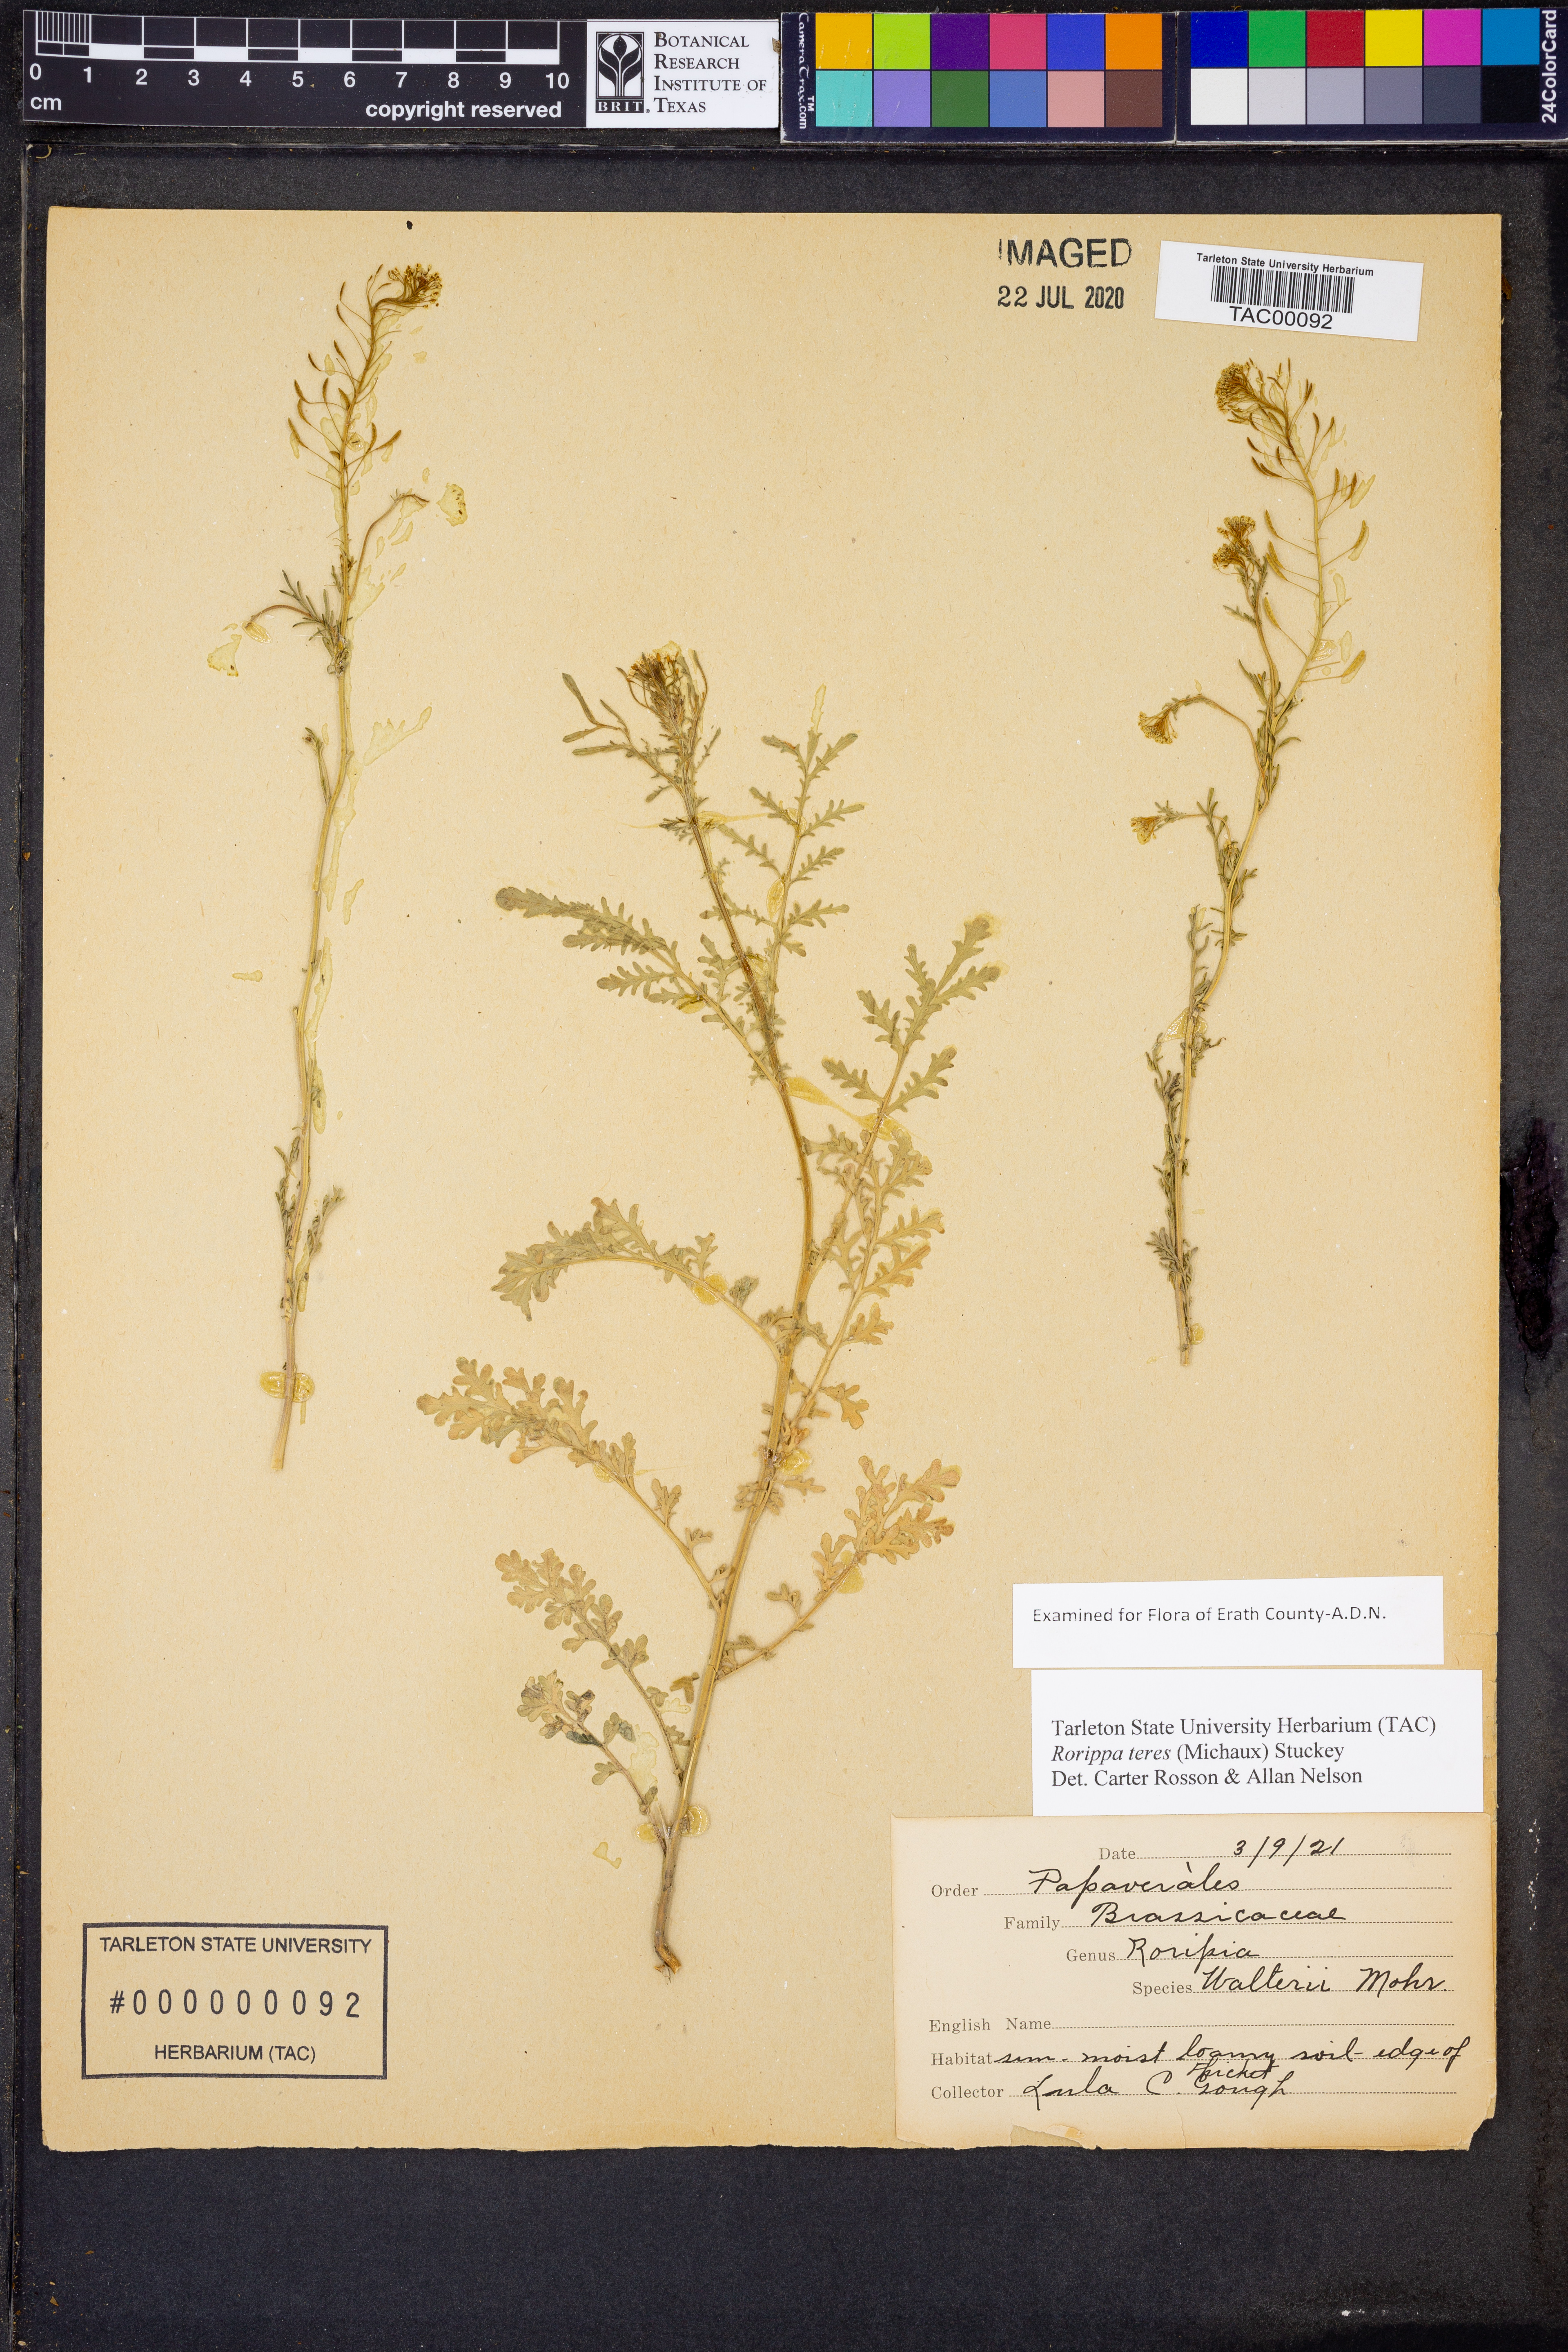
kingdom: Plantae
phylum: Tracheophyta
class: Magnoliopsida
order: Brassicales
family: Brassicaceae
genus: Rorippa
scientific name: Rorippa teres
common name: Southern marsh yellowcress
